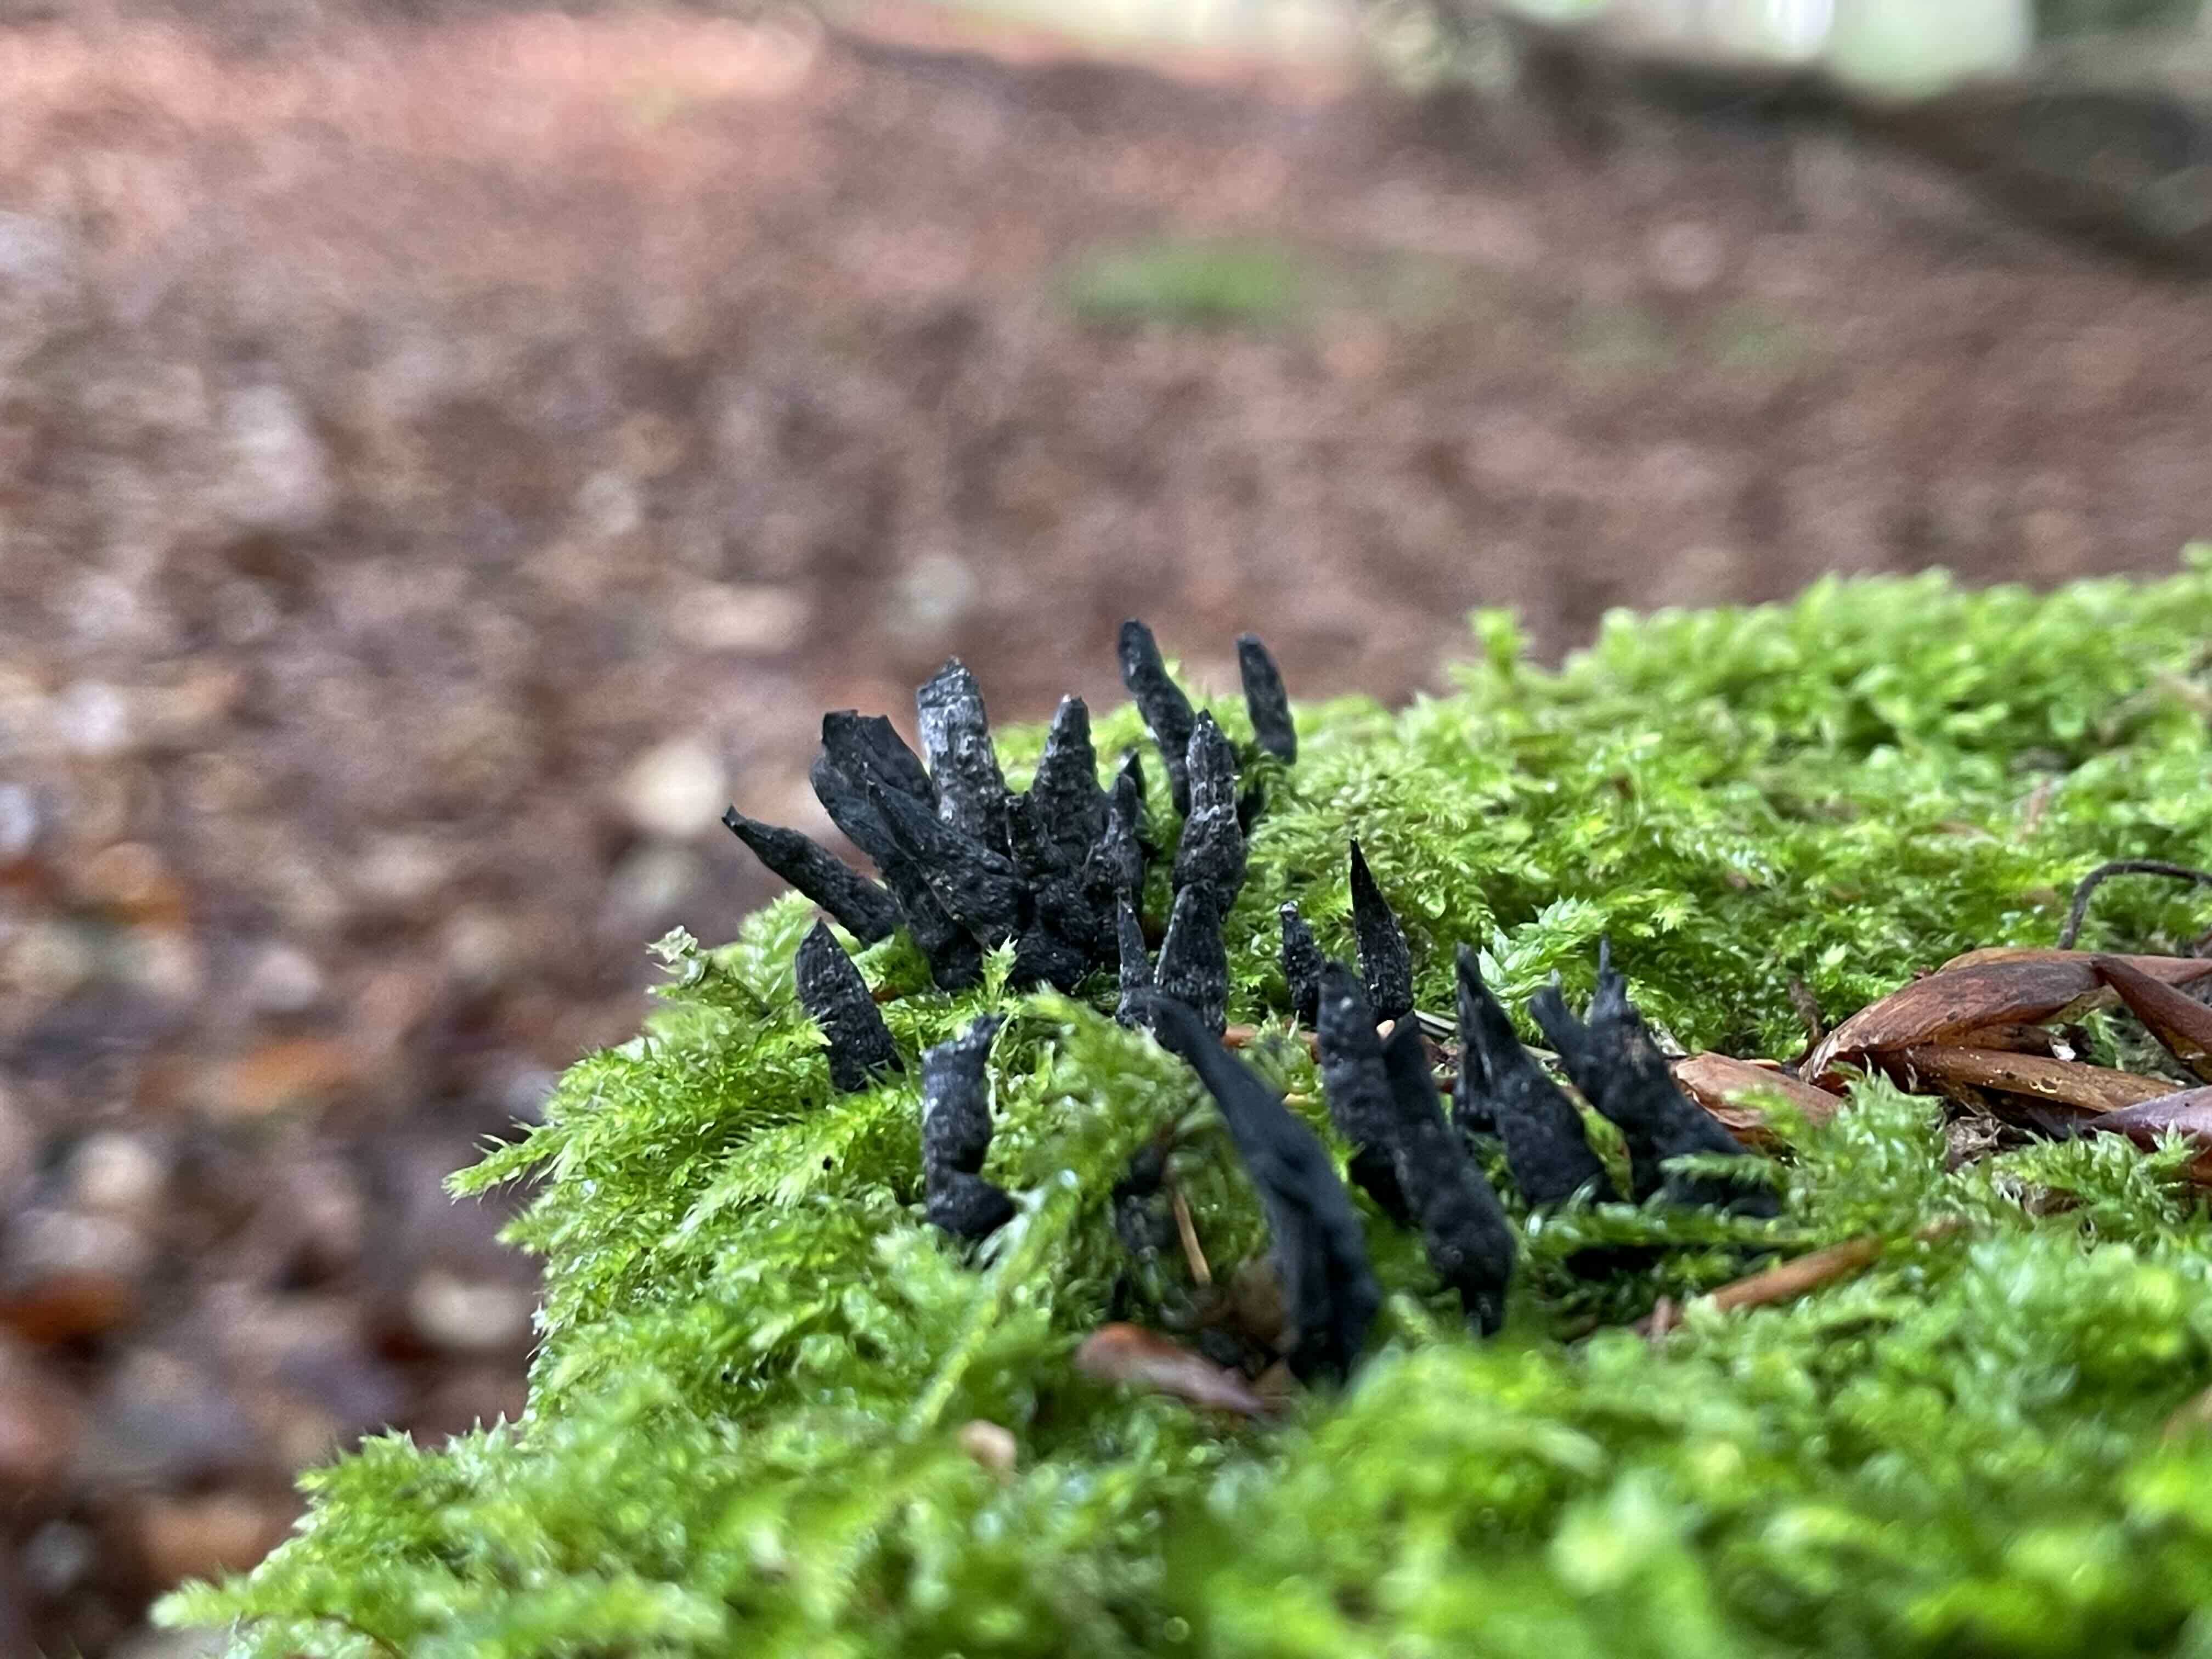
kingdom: Fungi
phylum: Ascomycota
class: Sordariomycetes
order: Xylariales
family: Xylariaceae
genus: Xylaria
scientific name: Xylaria hypoxylon
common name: grenet stødsvamp
